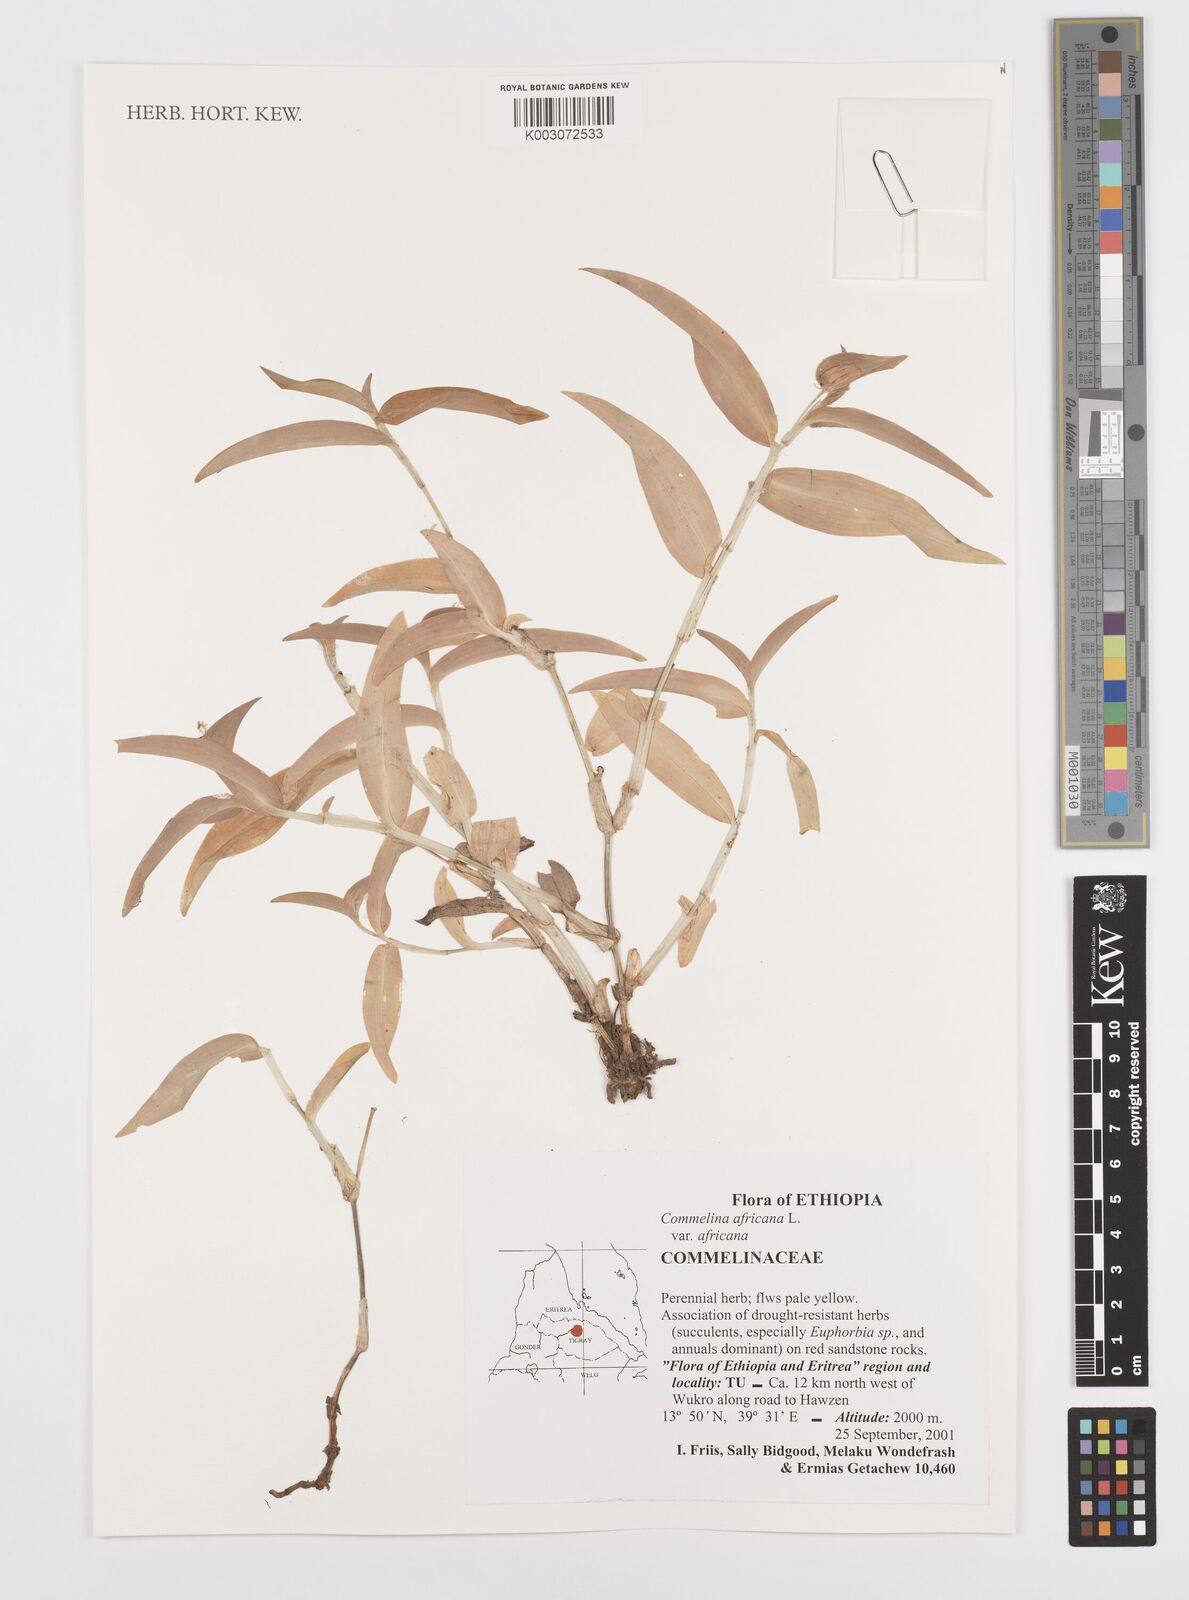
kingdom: Plantae
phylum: Tracheophyta
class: Liliopsida
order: Commelinales
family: Commelinaceae
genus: Commelina
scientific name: Commelina africana
